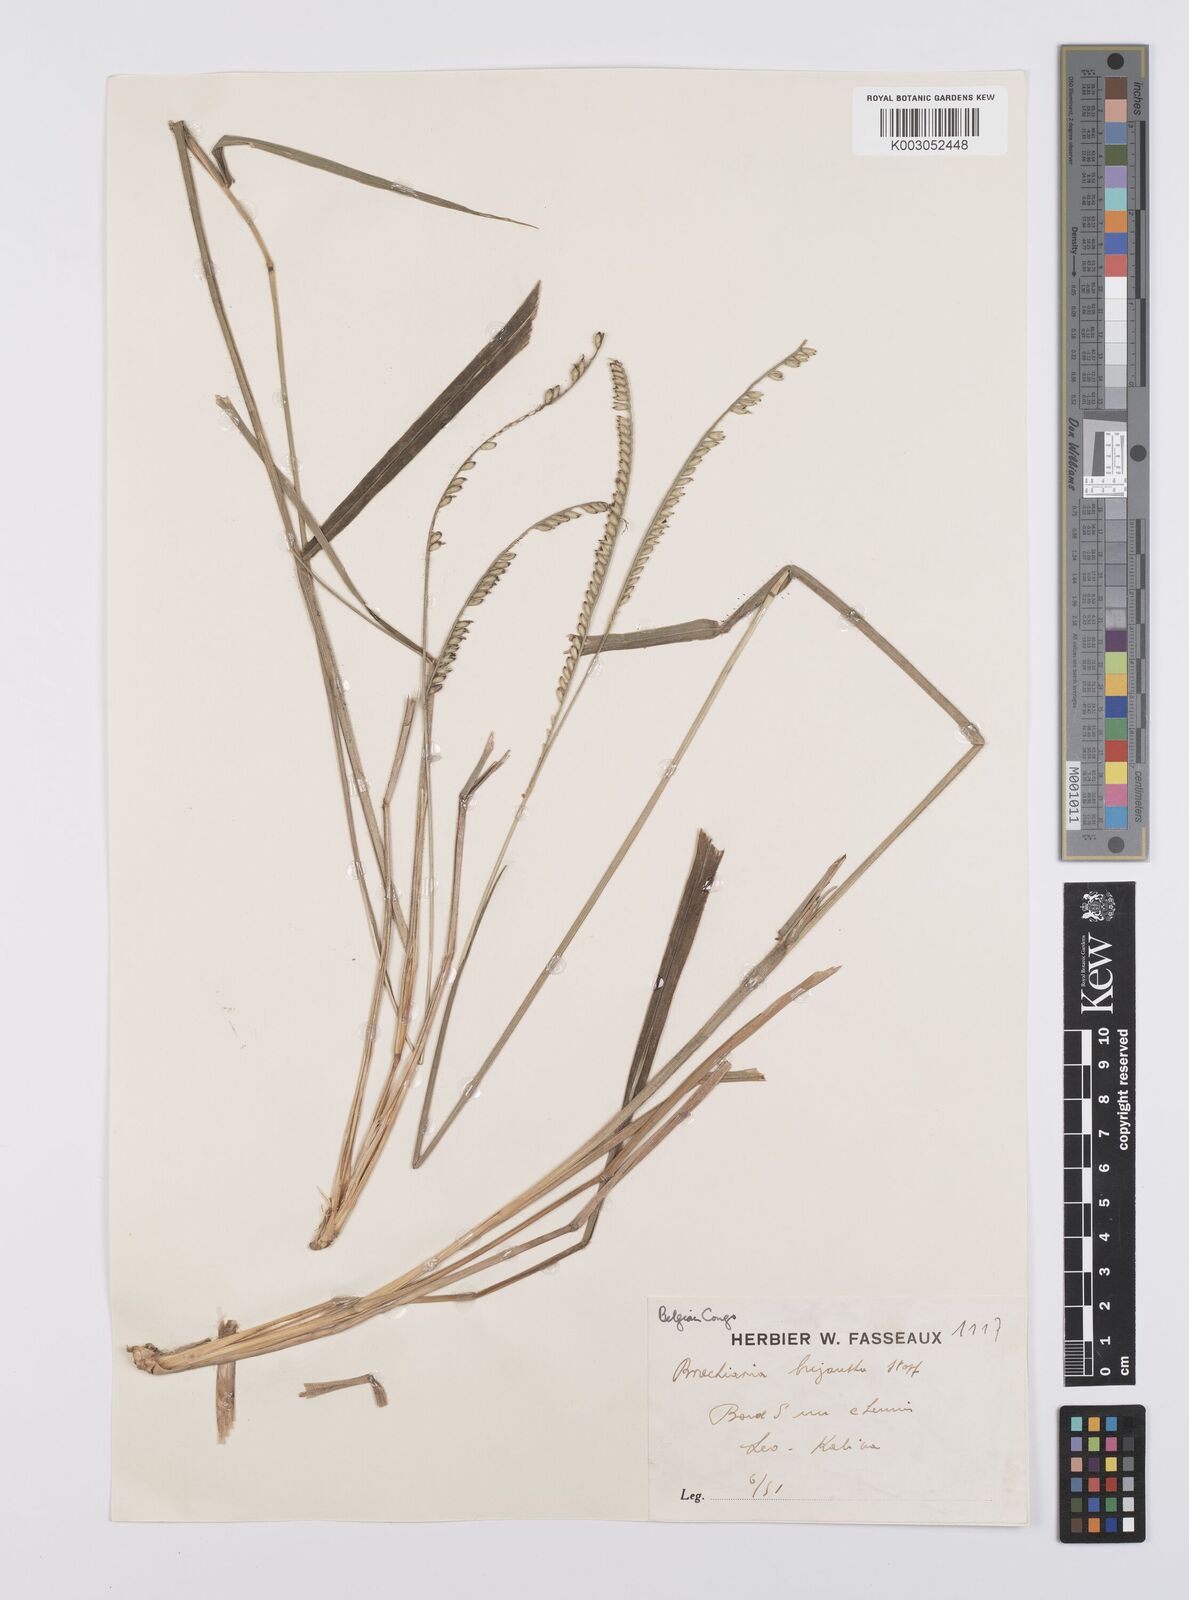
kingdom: Plantae
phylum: Tracheophyta
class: Liliopsida
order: Poales
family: Poaceae
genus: Urochloa
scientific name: Urochloa brizantha
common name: Palisade signalgrass
